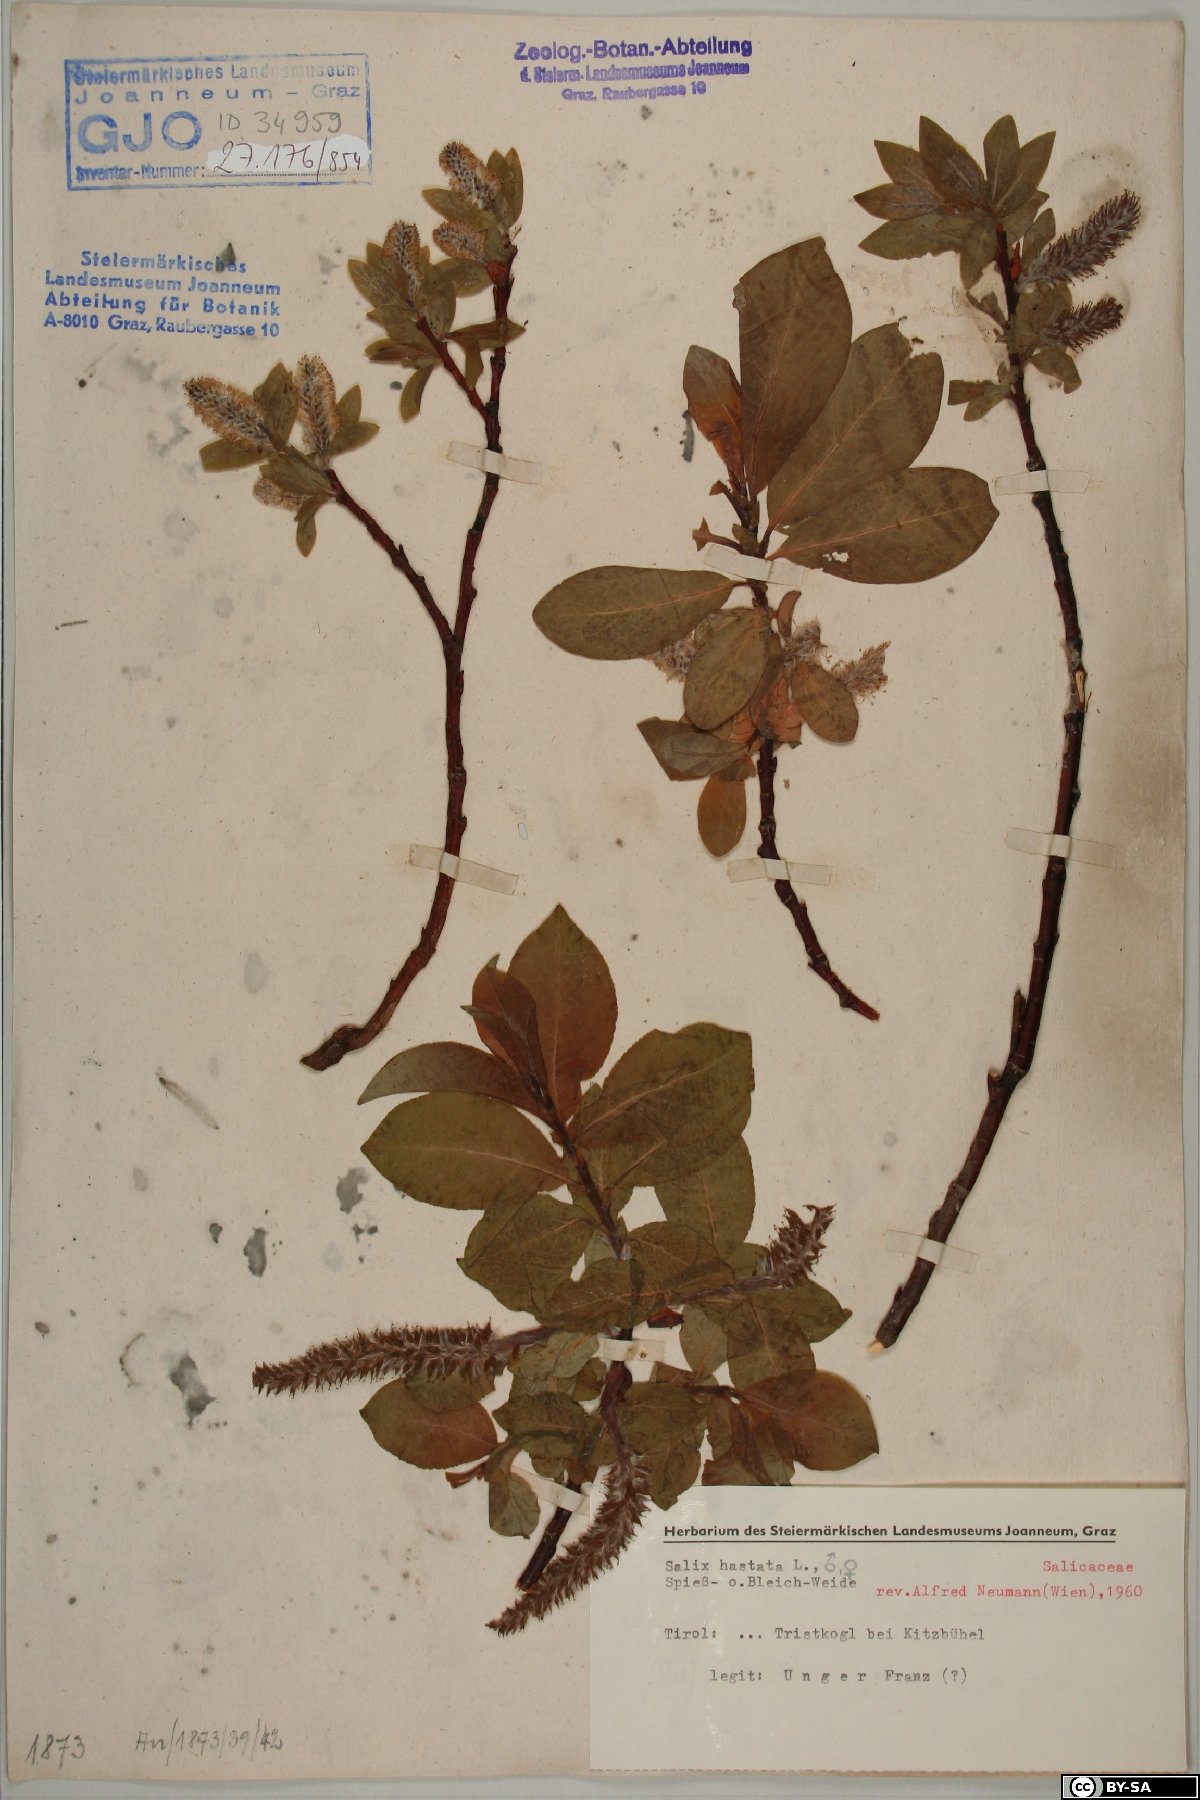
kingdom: Plantae
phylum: Tracheophyta
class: Magnoliopsida
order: Malpighiales
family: Salicaceae
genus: Salix
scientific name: Salix hastata
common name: Halberd willow
